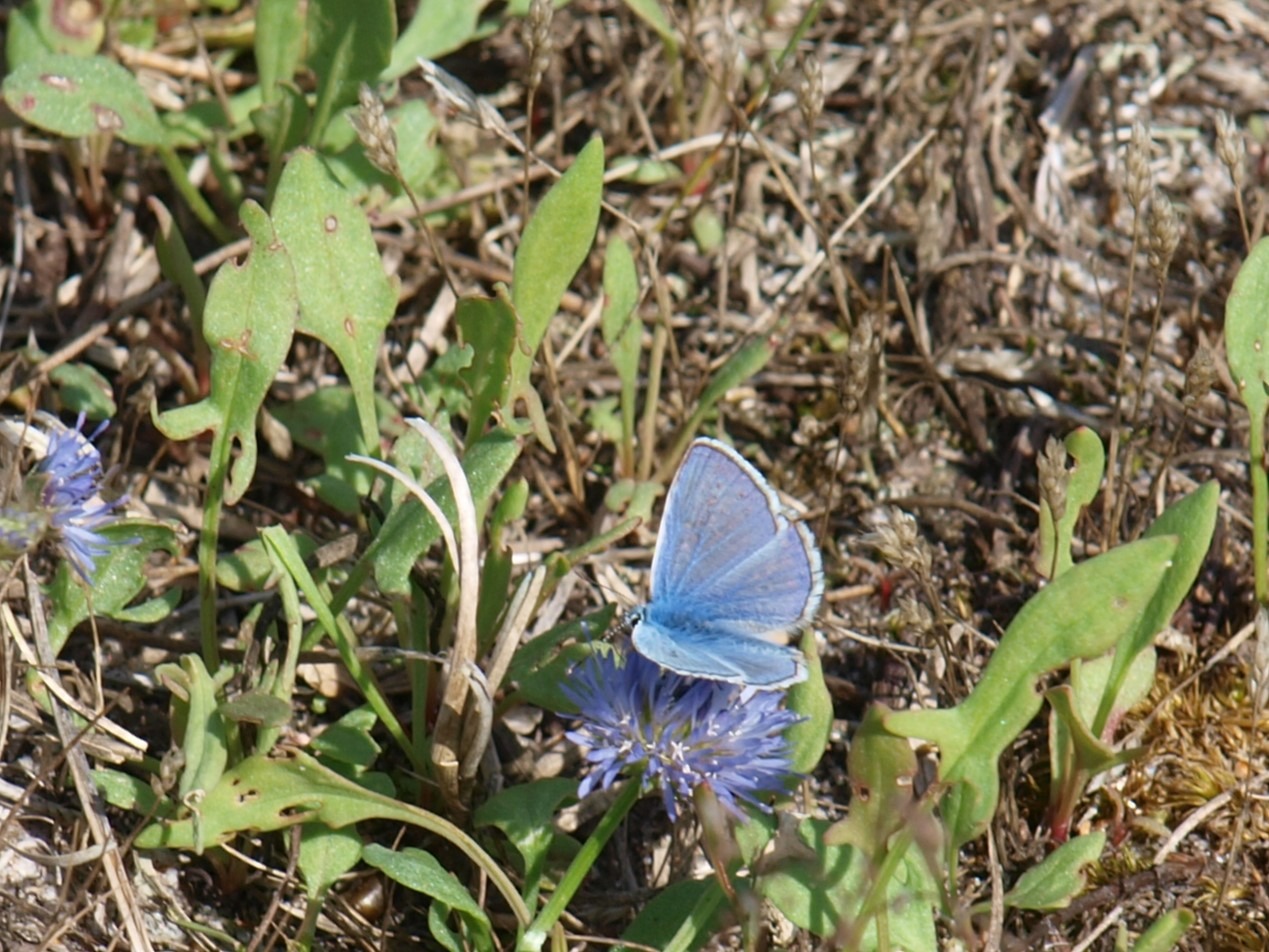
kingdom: Animalia
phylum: Arthropoda
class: Insecta
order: Lepidoptera
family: Lycaenidae
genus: Polyommatus
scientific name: Polyommatus icarus
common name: Almindelig blåfugl
